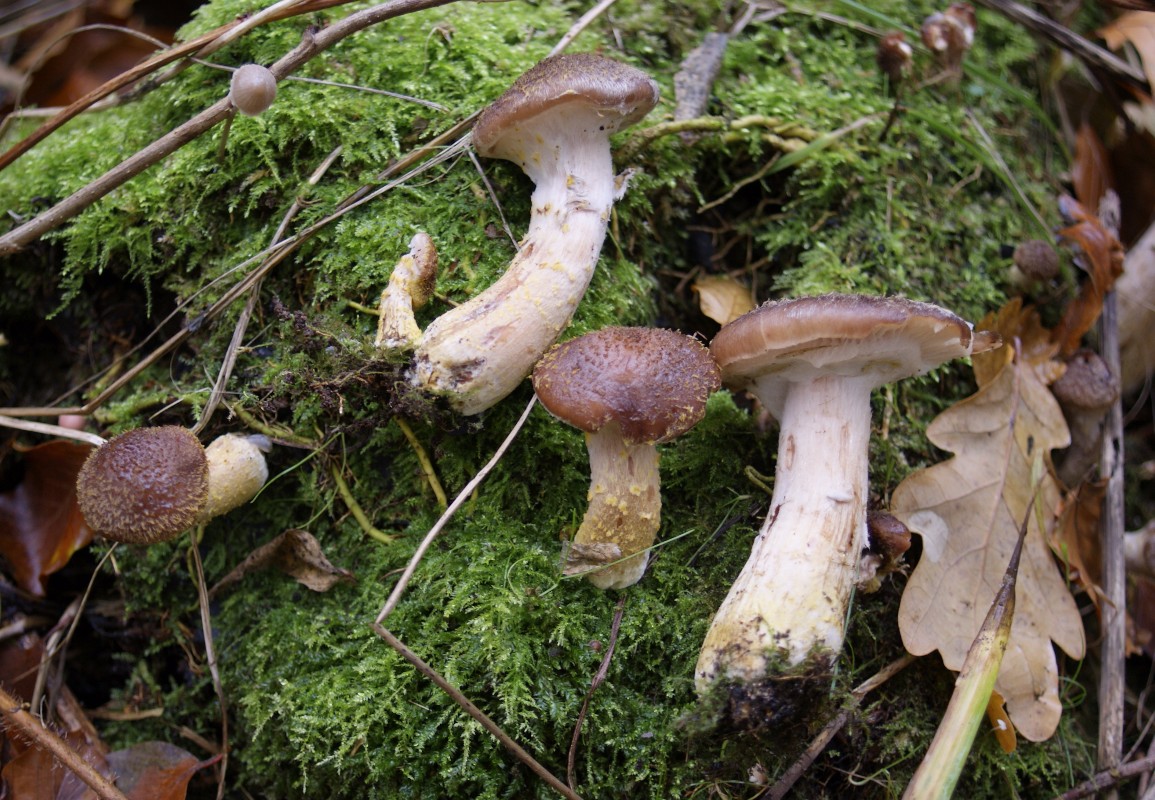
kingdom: Fungi
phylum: Basidiomycota
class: Agaricomycetes
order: Agaricales
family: Physalacriaceae
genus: Armillaria
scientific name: Armillaria lutea
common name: køllestokket honningsvamp
